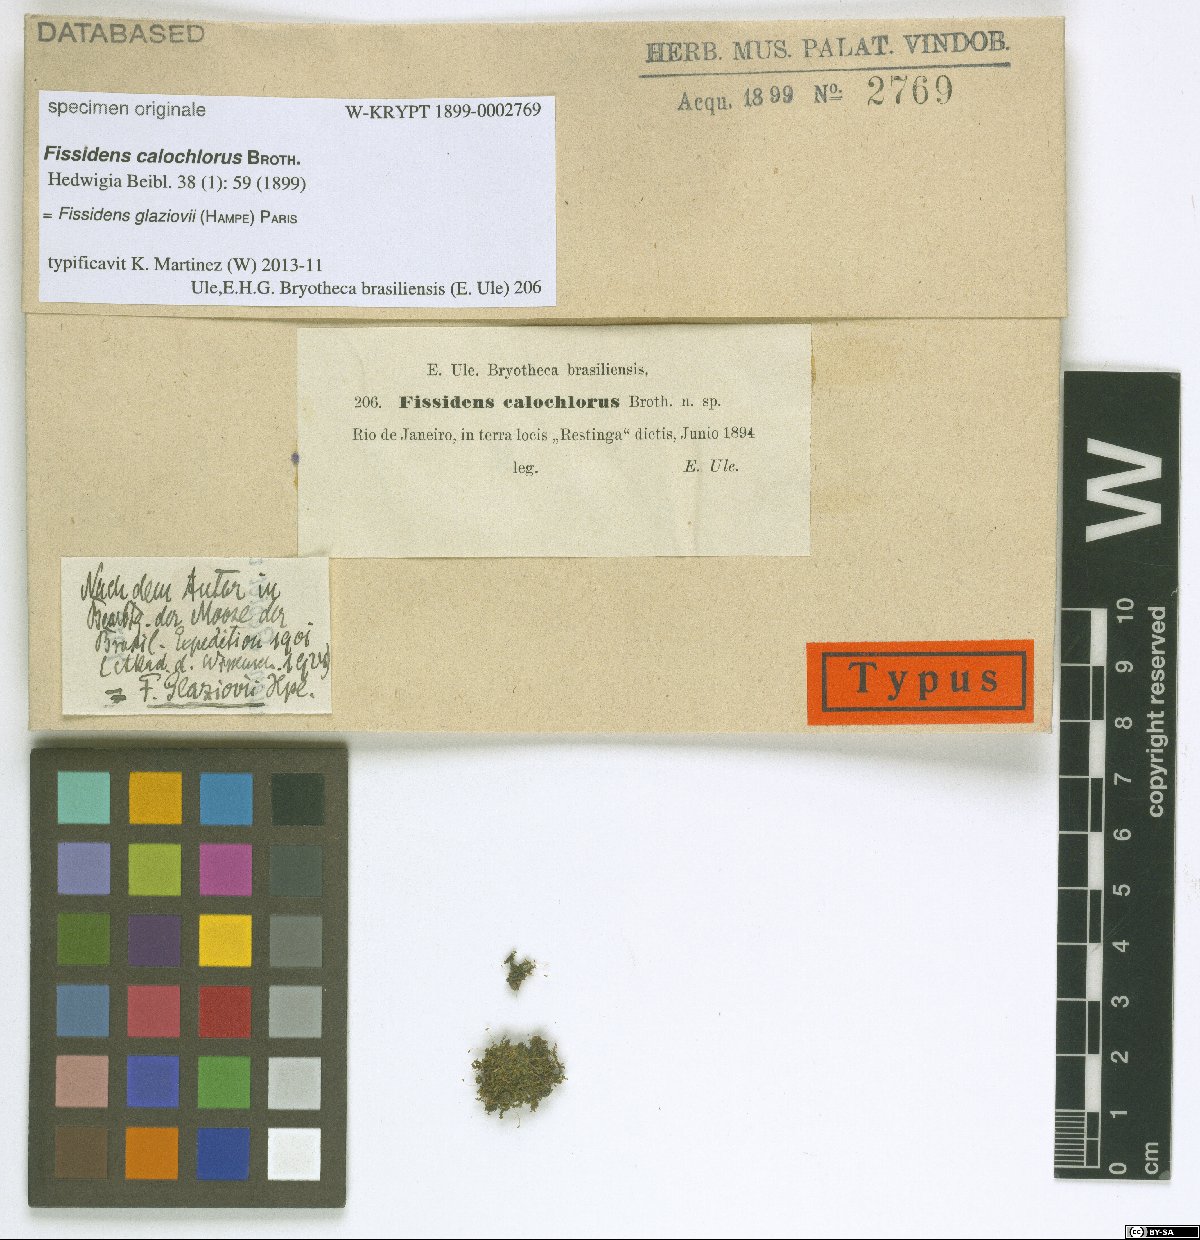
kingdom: Plantae
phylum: Bryophyta
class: Bryopsida
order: Dicranales
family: Fissidentaceae
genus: Fissidens
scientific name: Fissidens bogosicus
